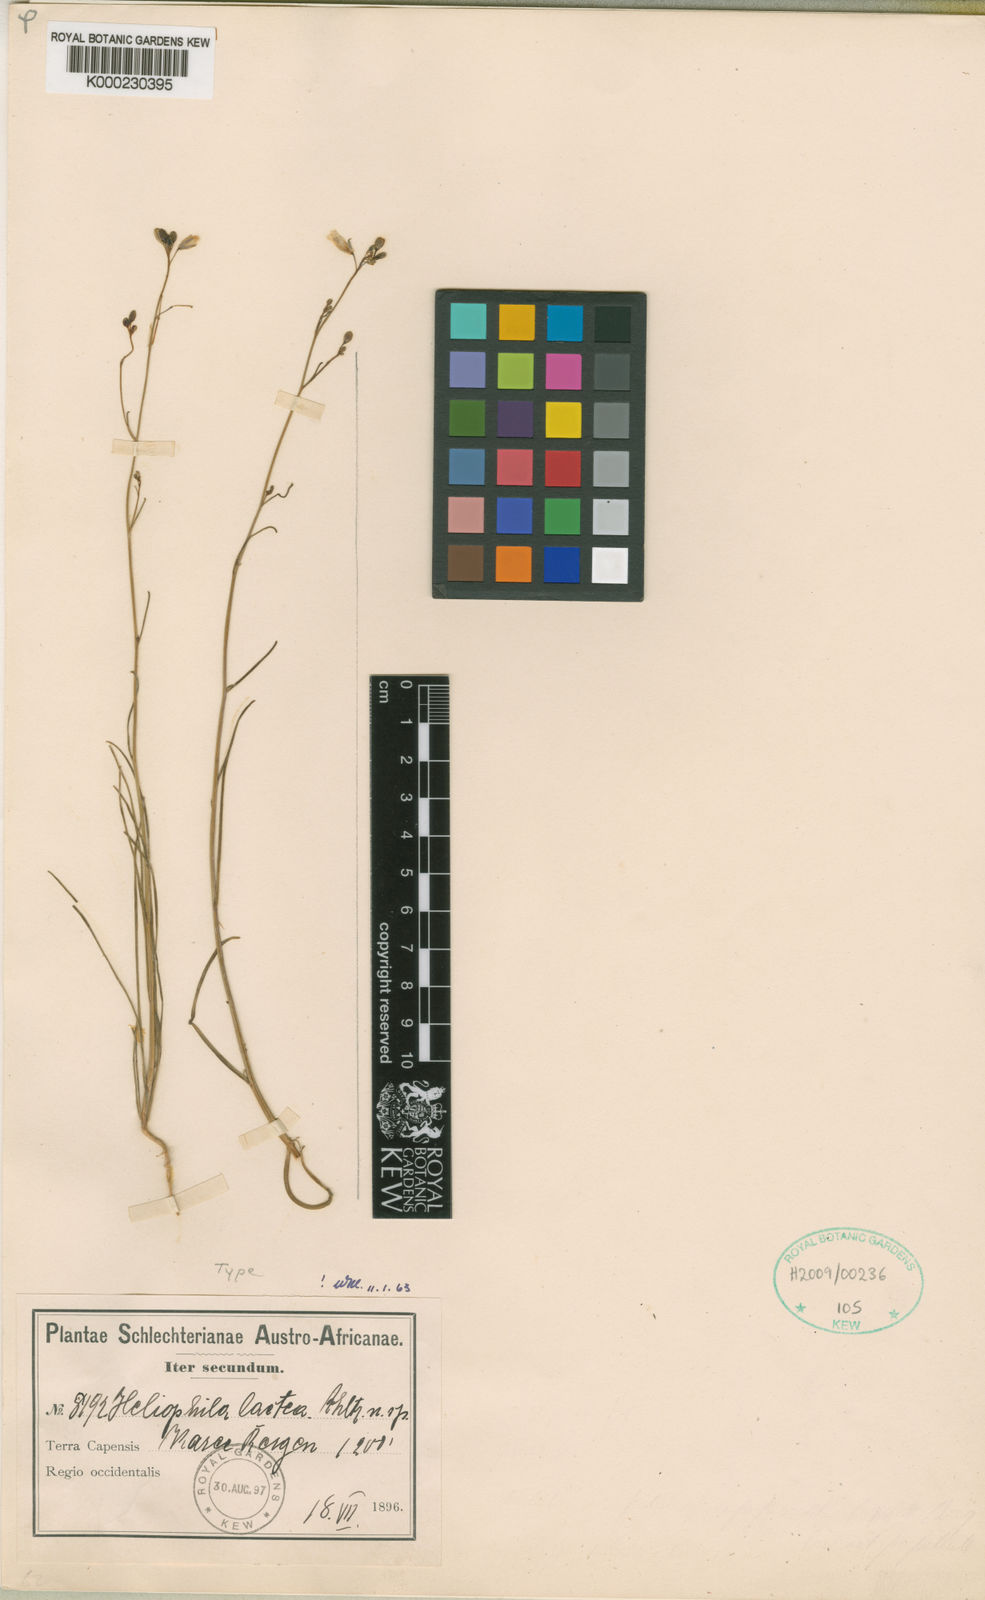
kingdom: Plantae
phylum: Tracheophyta
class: Magnoliopsida
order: Brassicales
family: Brassicaceae
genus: Heliophila
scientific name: Heliophila lactea
